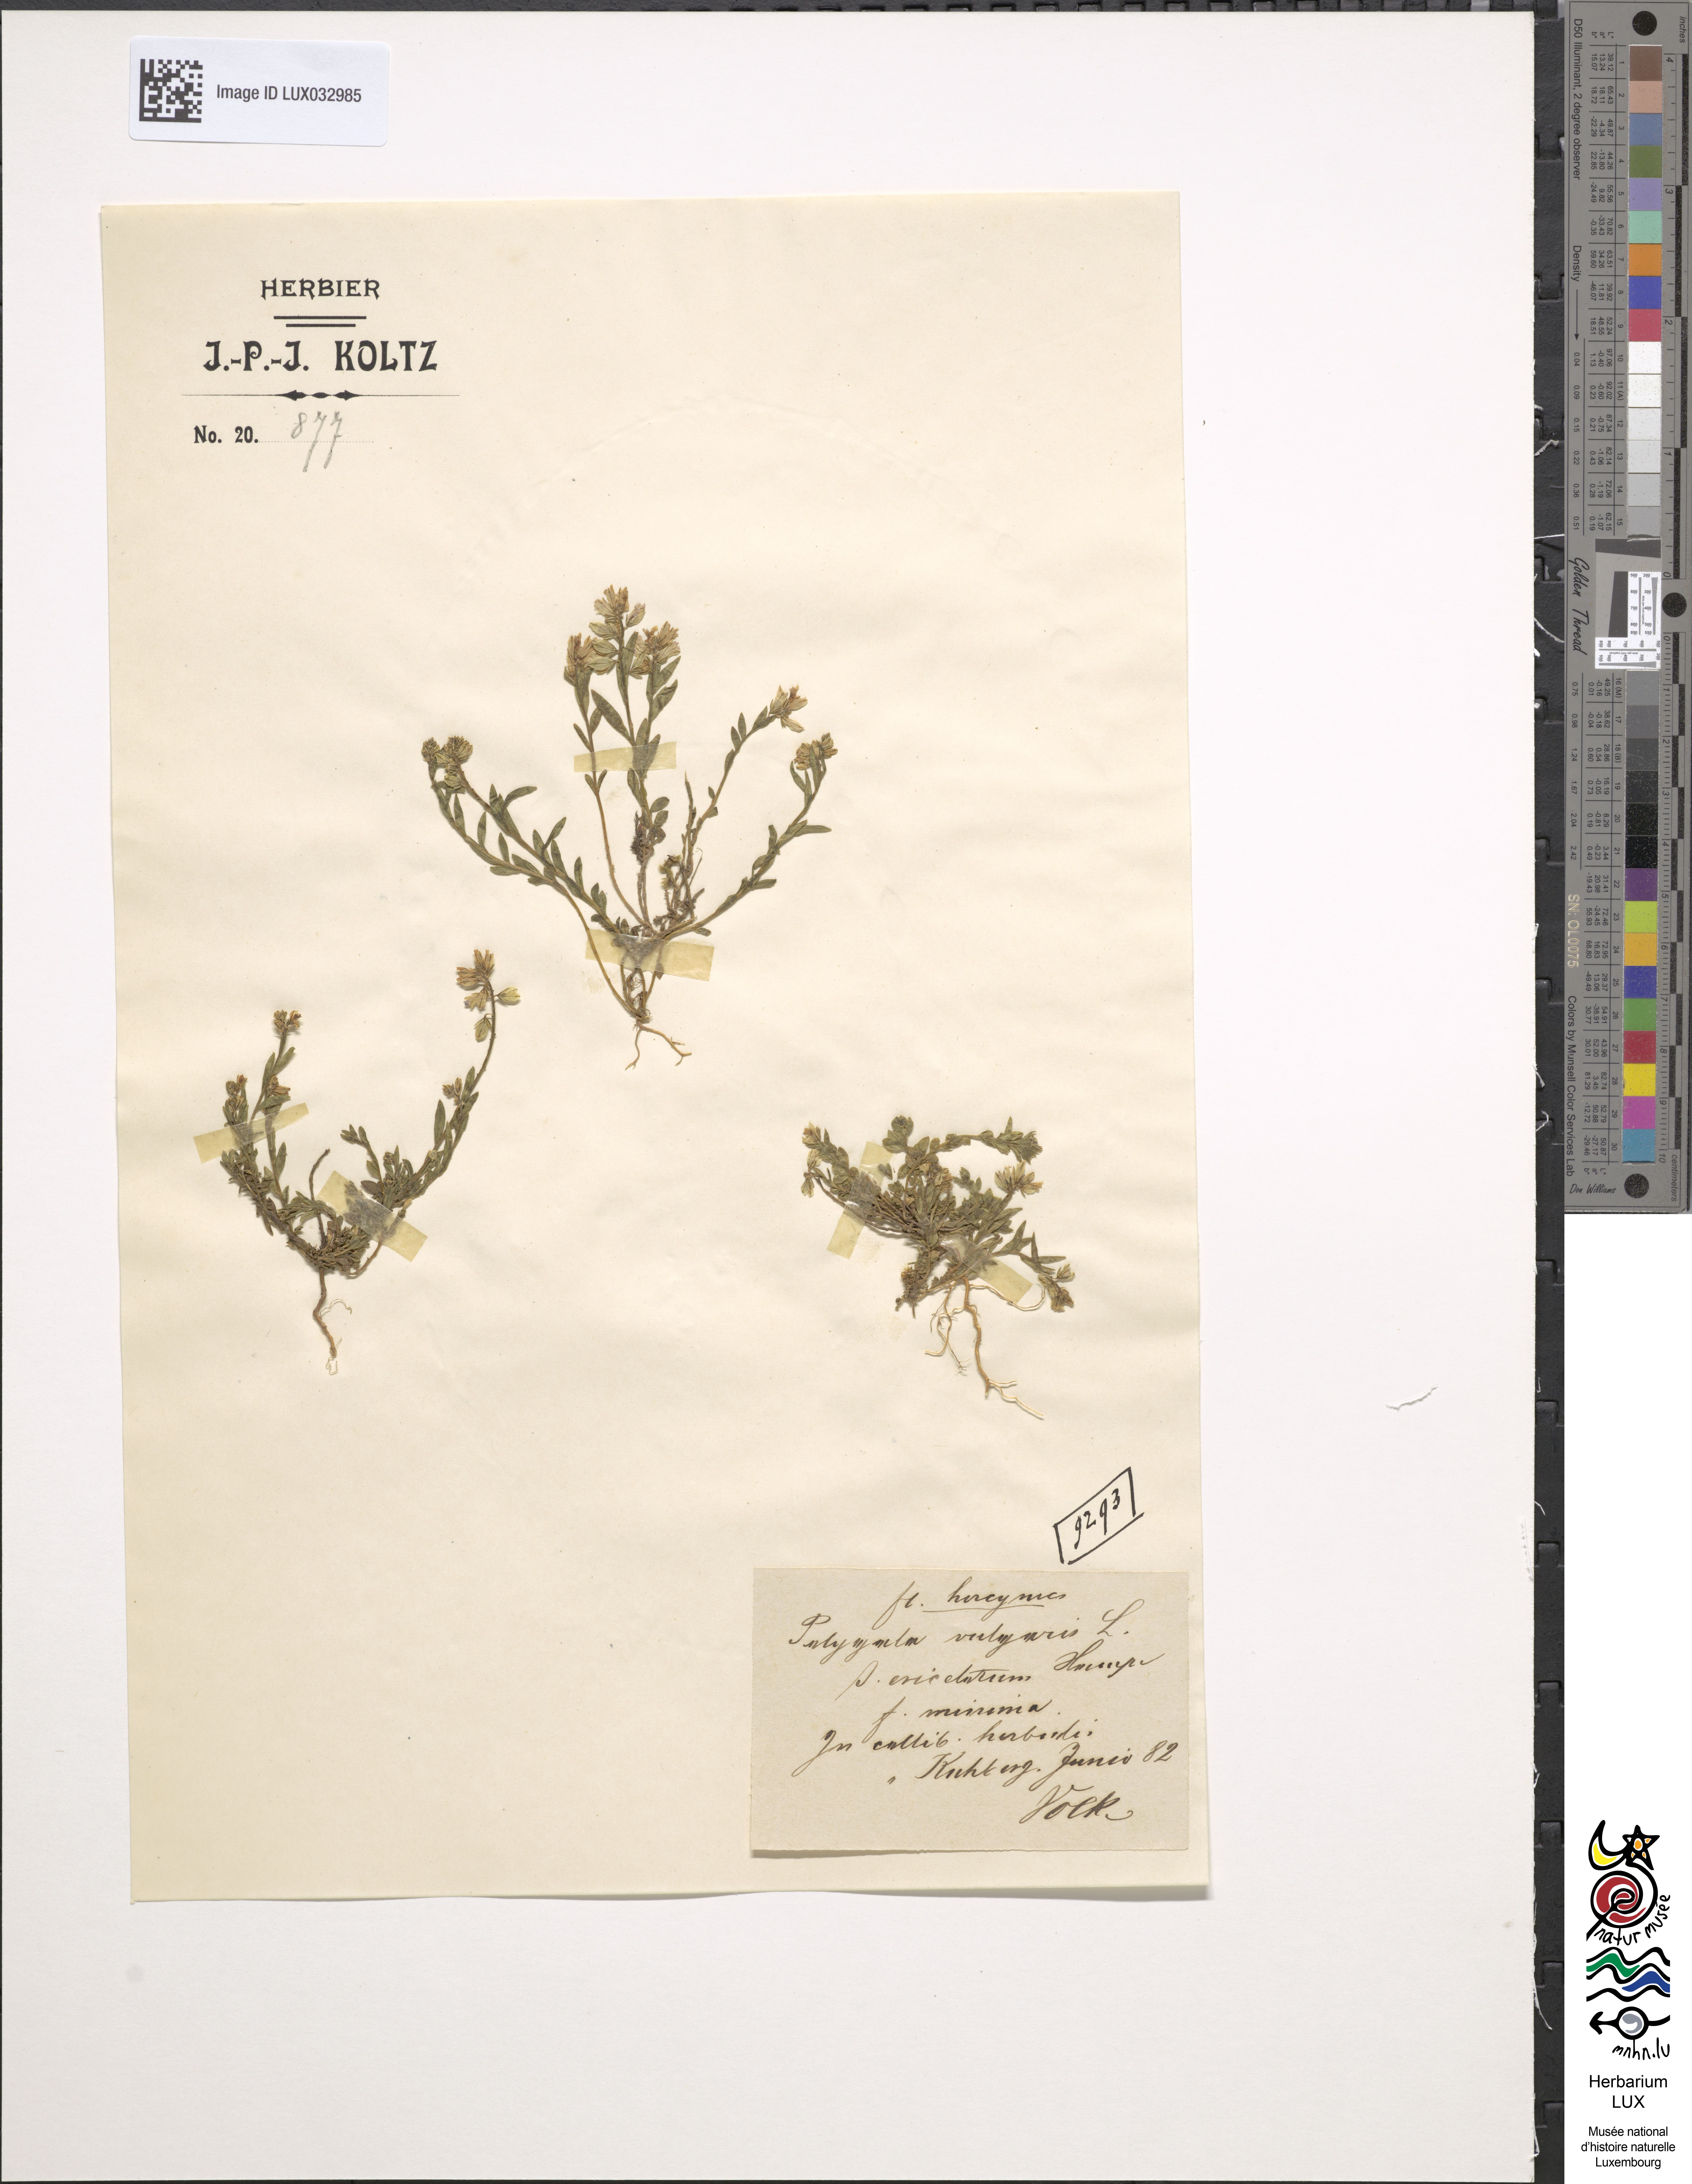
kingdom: Plantae
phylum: Tracheophyta
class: Magnoliopsida
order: Fabales
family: Polygalaceae
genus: Polygala
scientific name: Polygala vulgaris
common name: Common milkwort
